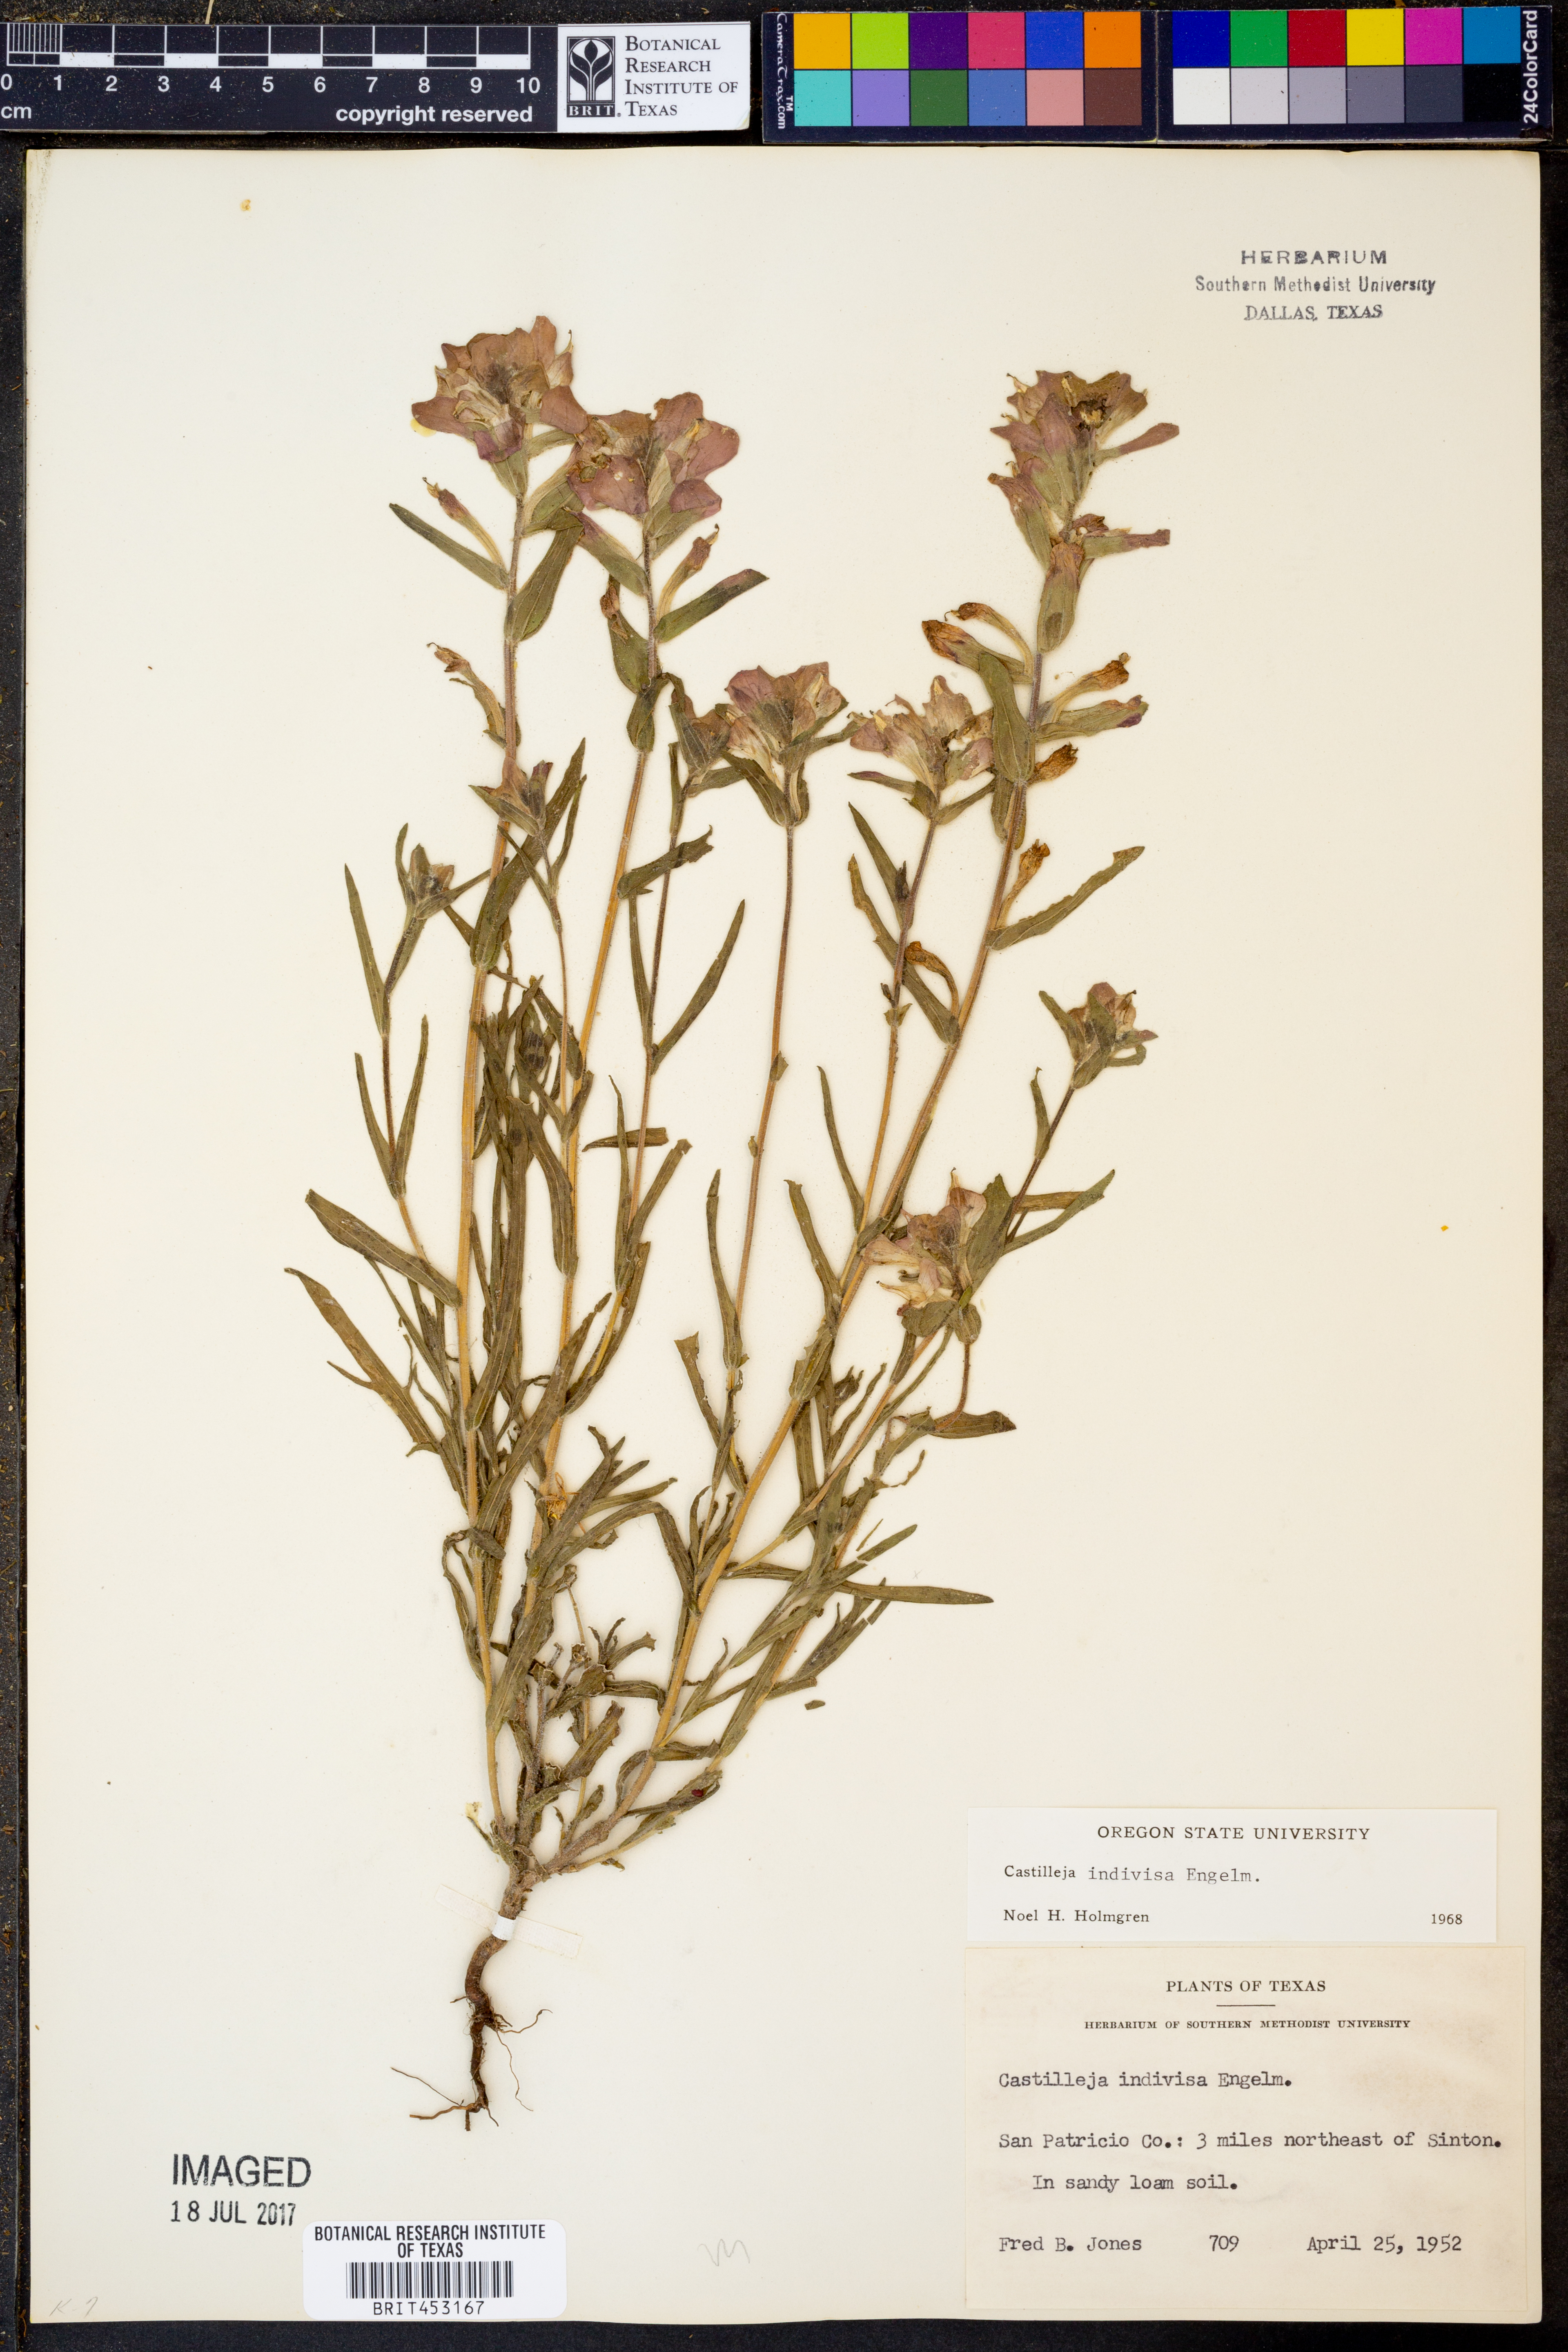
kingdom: Plantae
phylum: Tracheophyta
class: Magnoliopsida
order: Lamiales
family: Orobanchaceae
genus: Castilleja
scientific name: Castilleja indivisa
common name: Texas paintbrush
